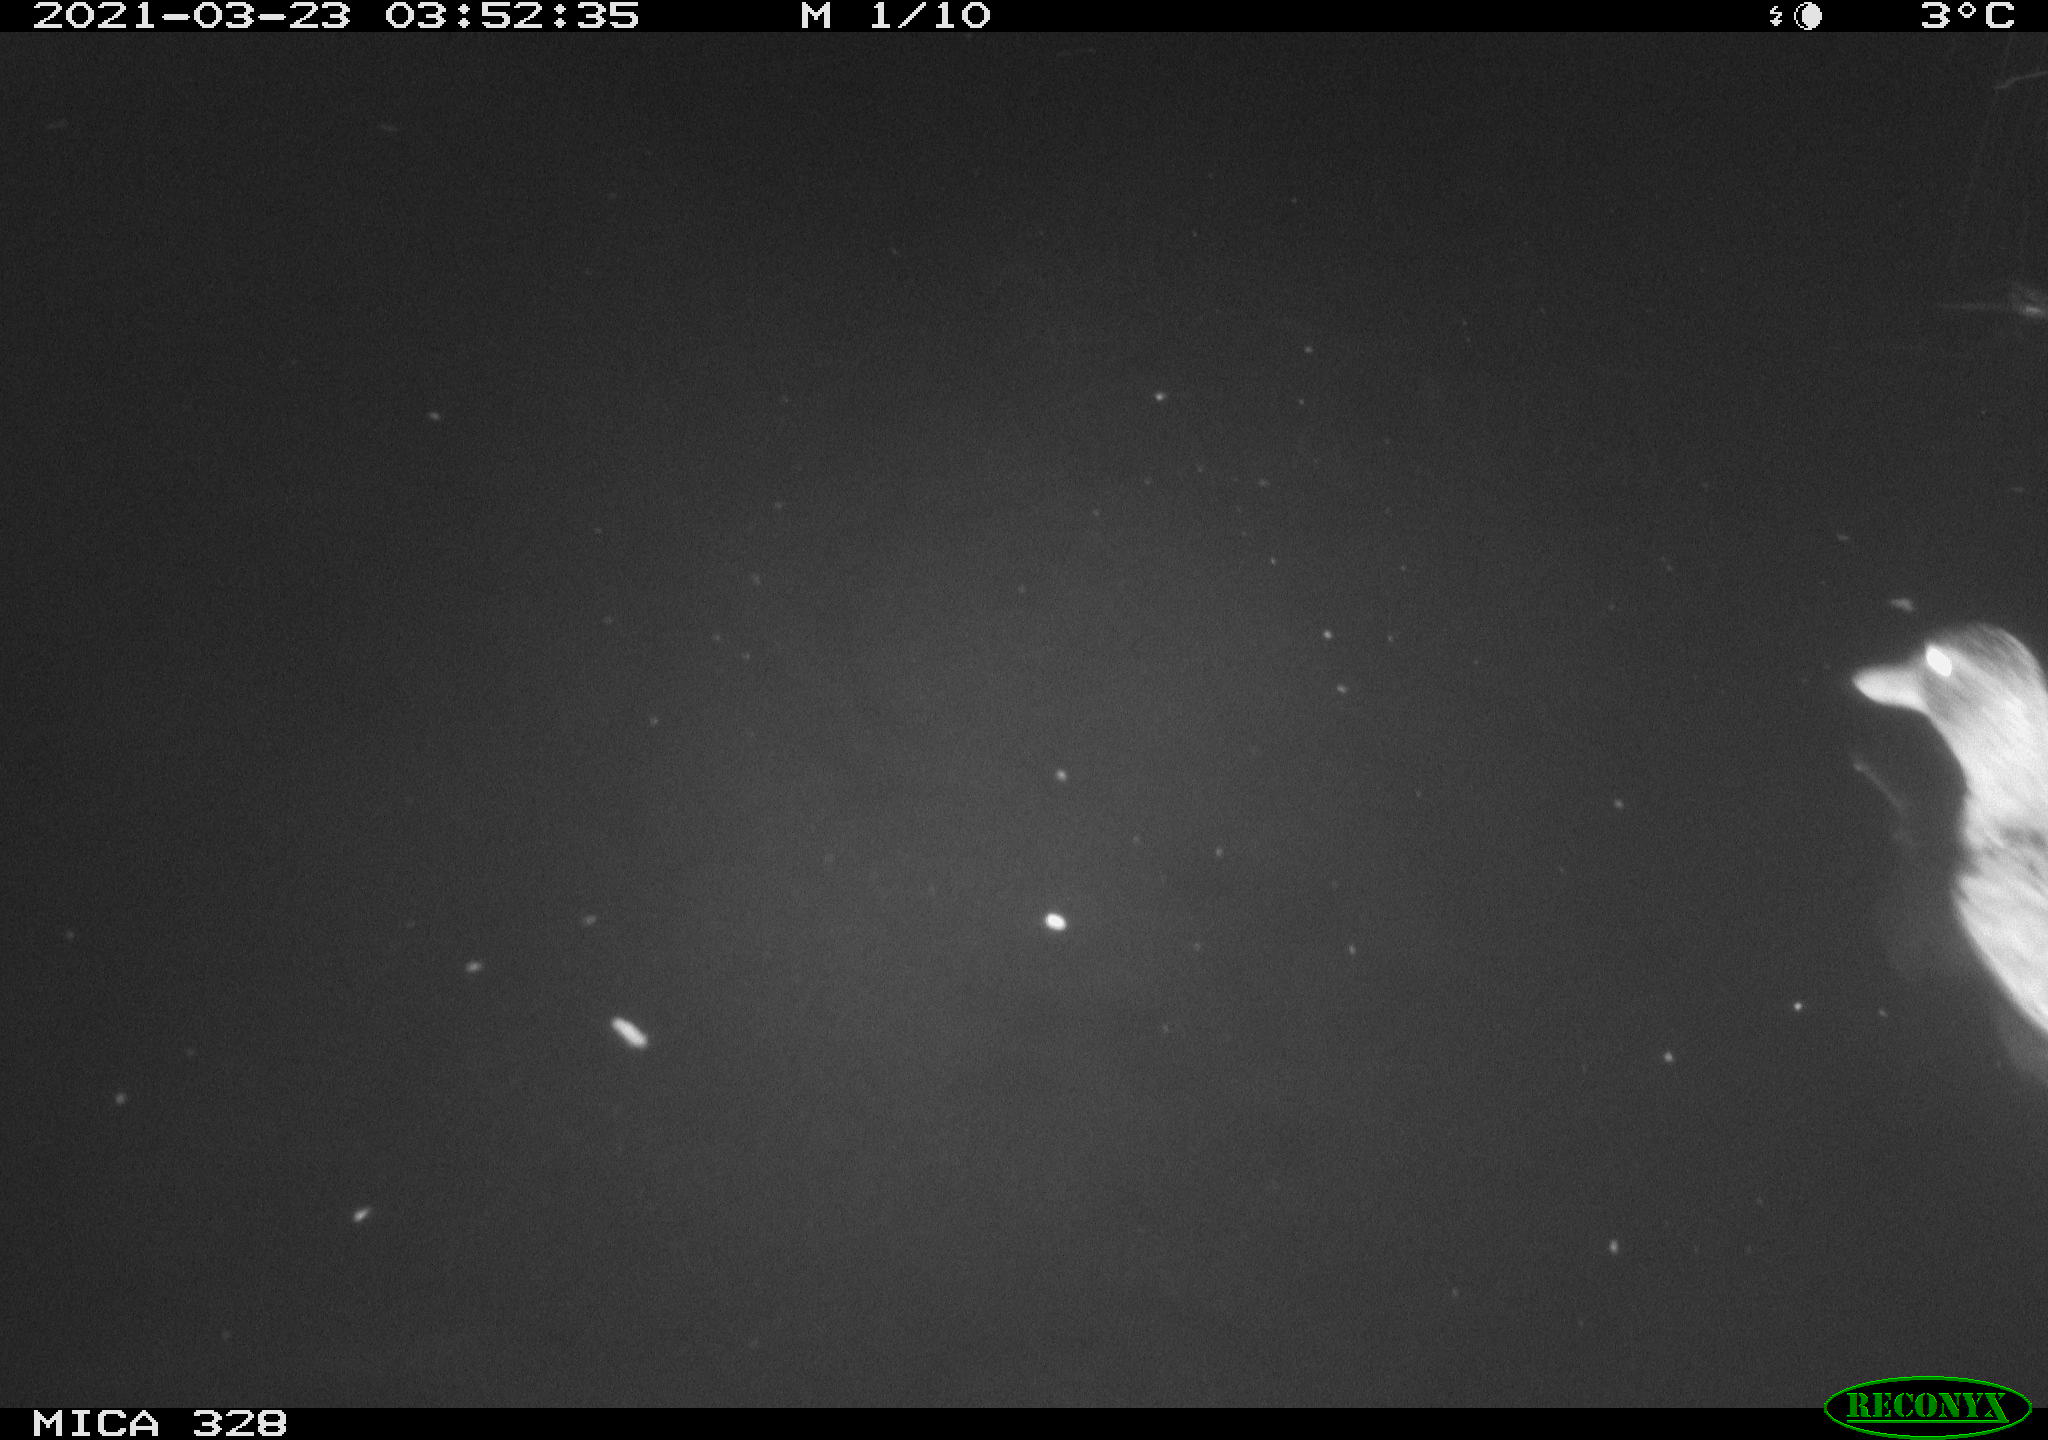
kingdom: Animalia
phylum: Chordata
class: Aves
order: Anseriformes
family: Anatidae
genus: Anas
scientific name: Anas platyrhynchos
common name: Mallard
